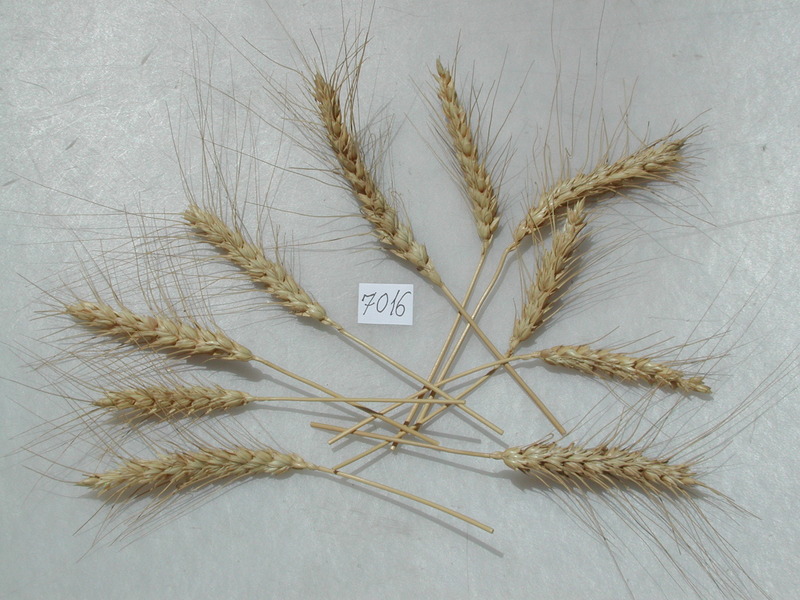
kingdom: Plantae
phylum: Tracheophyta
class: Liliopsida
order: Poales
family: Poaceae
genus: Triticum
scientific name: Triticum aestivum
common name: Wheat
